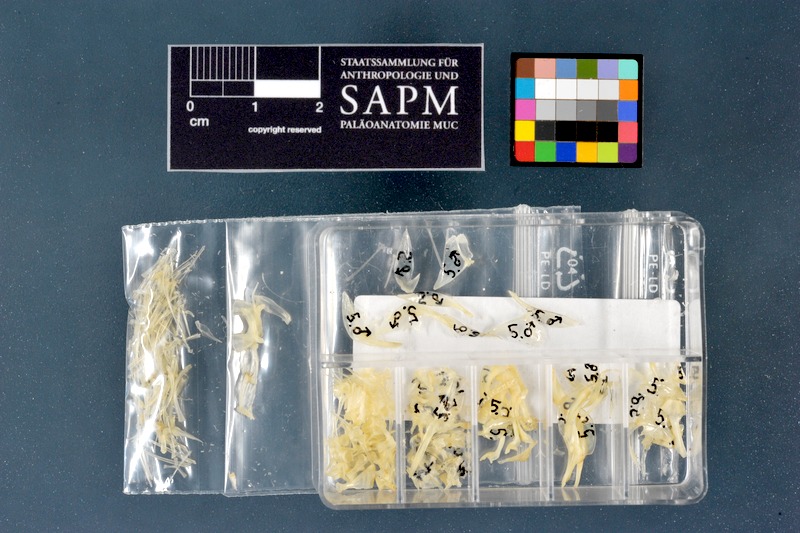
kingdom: Animalia
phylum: Chordata
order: Perciformes
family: Gobiidae
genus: Gobius
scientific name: Gobius niger
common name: Black goby
